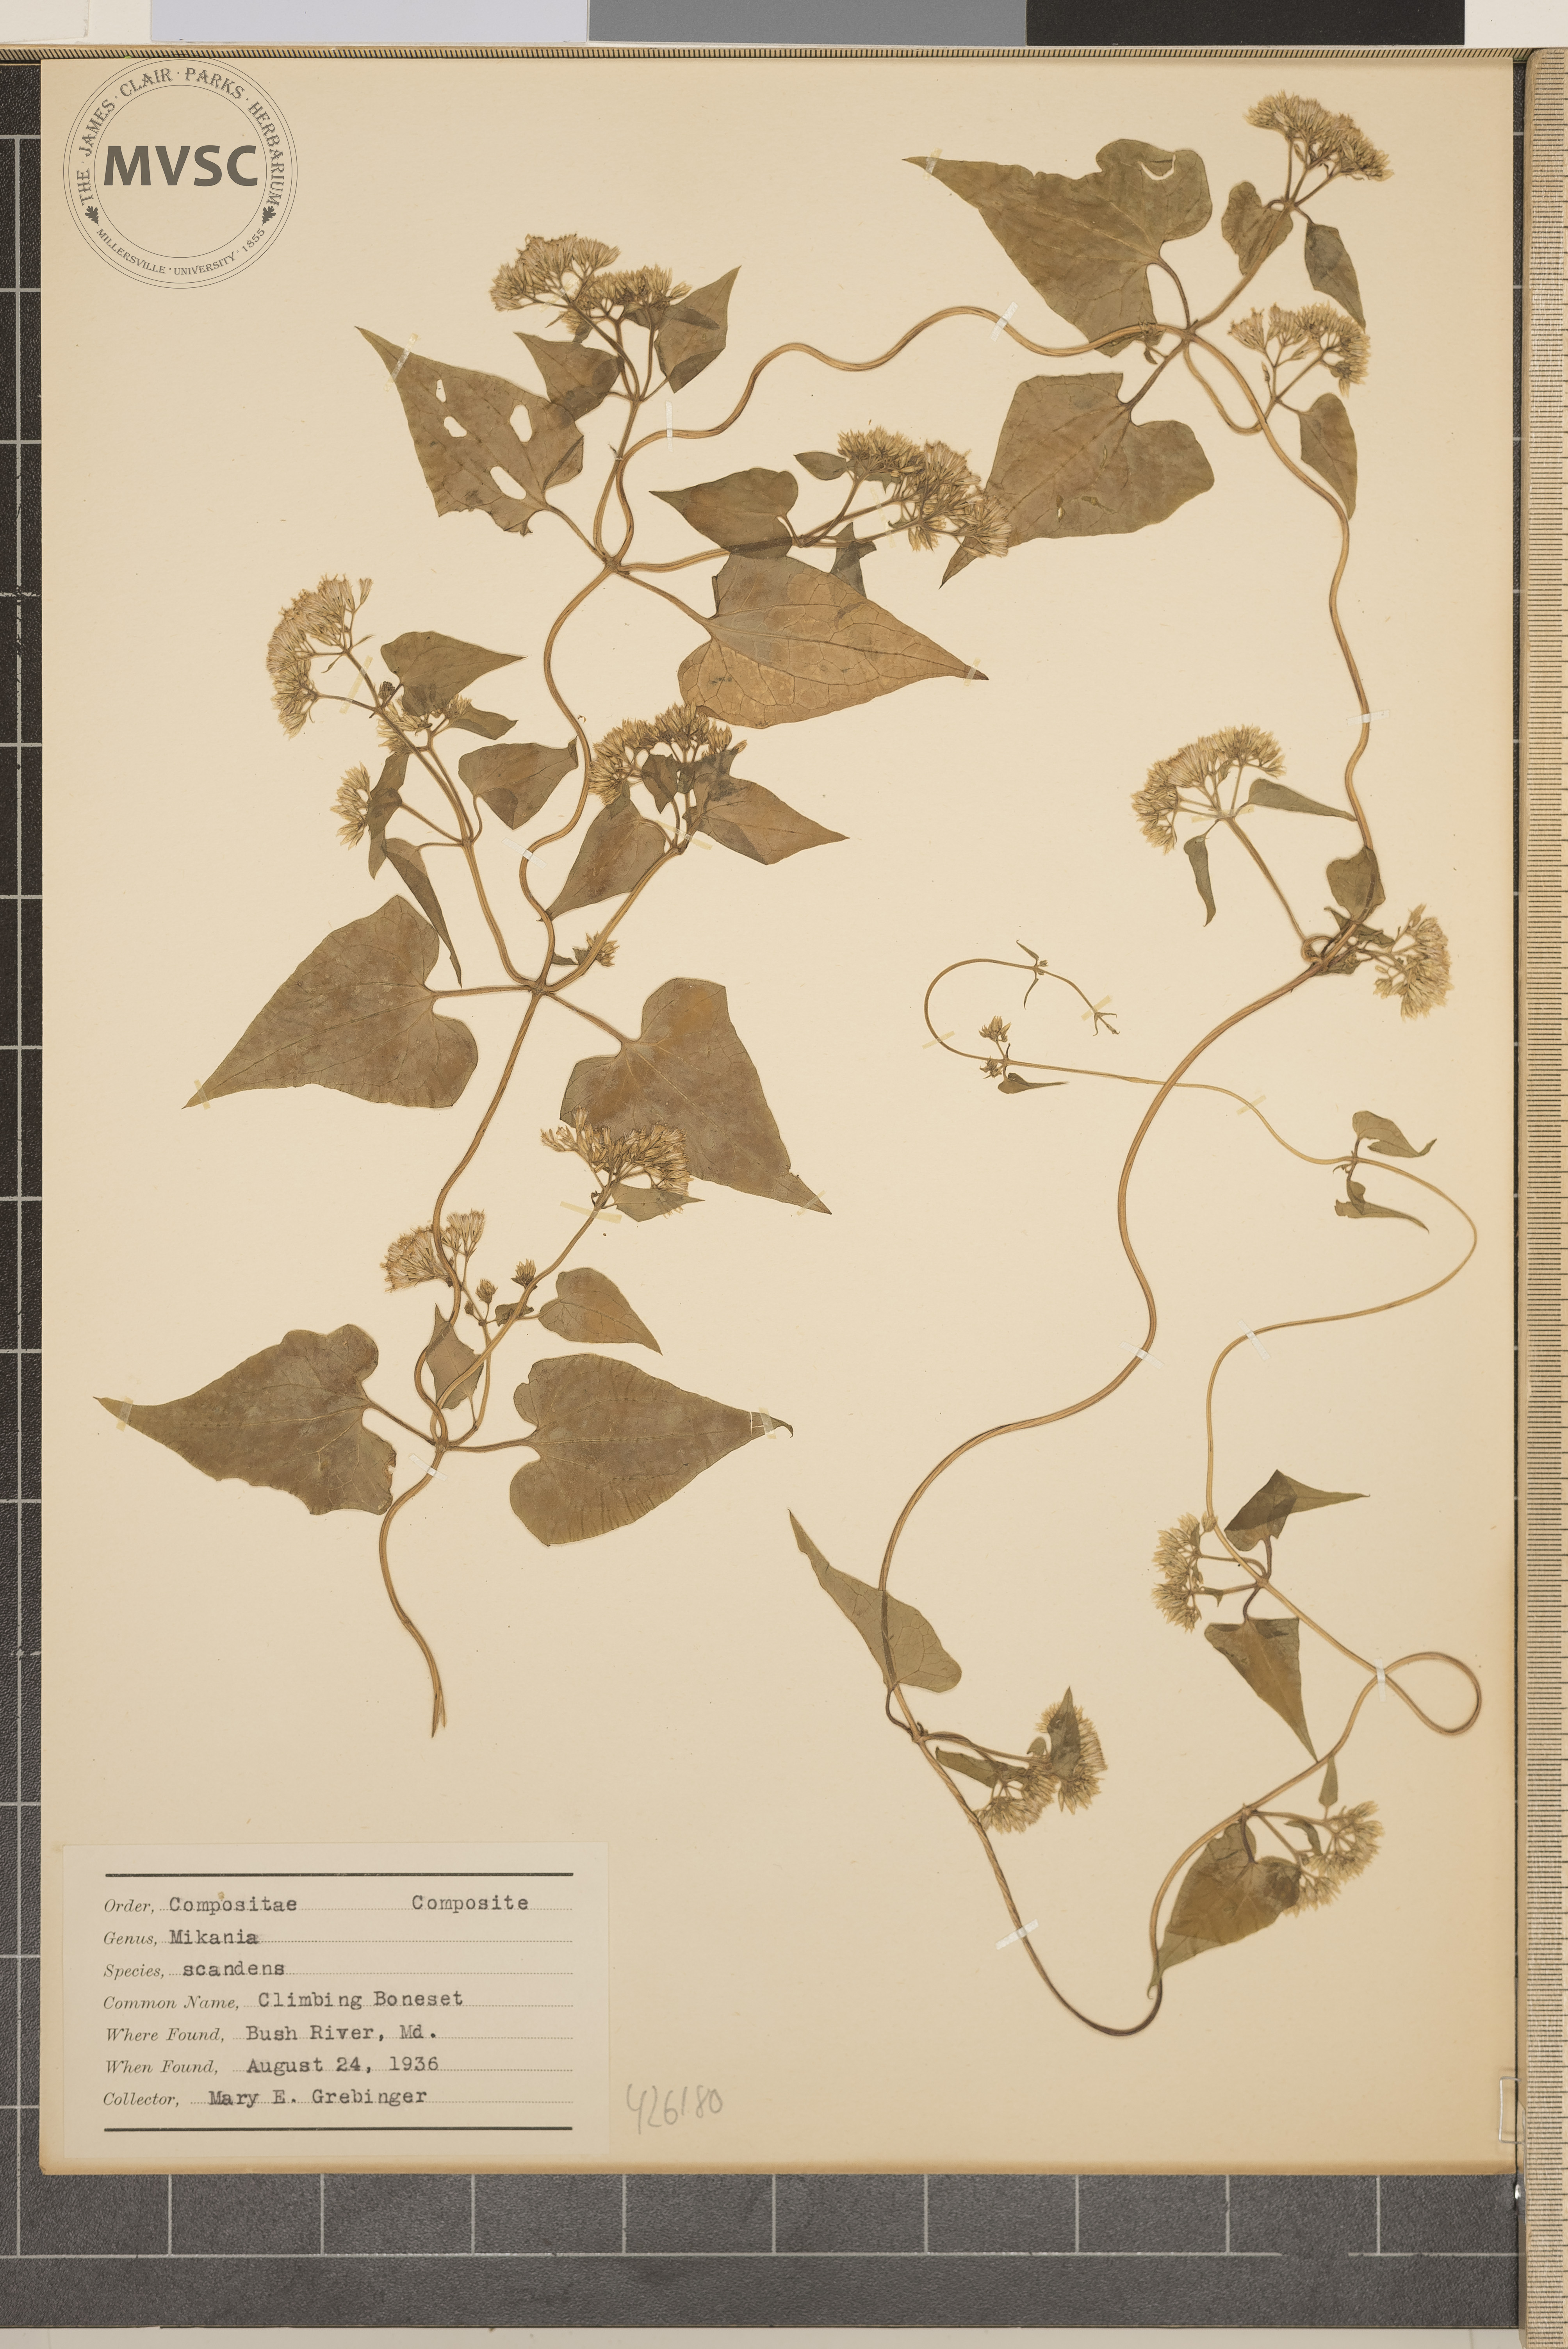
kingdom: Plantae
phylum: Tracheophyta
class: Magnoliopsida
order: Asterales
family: Asteraceae
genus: Mikania
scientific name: Mikania scandens
